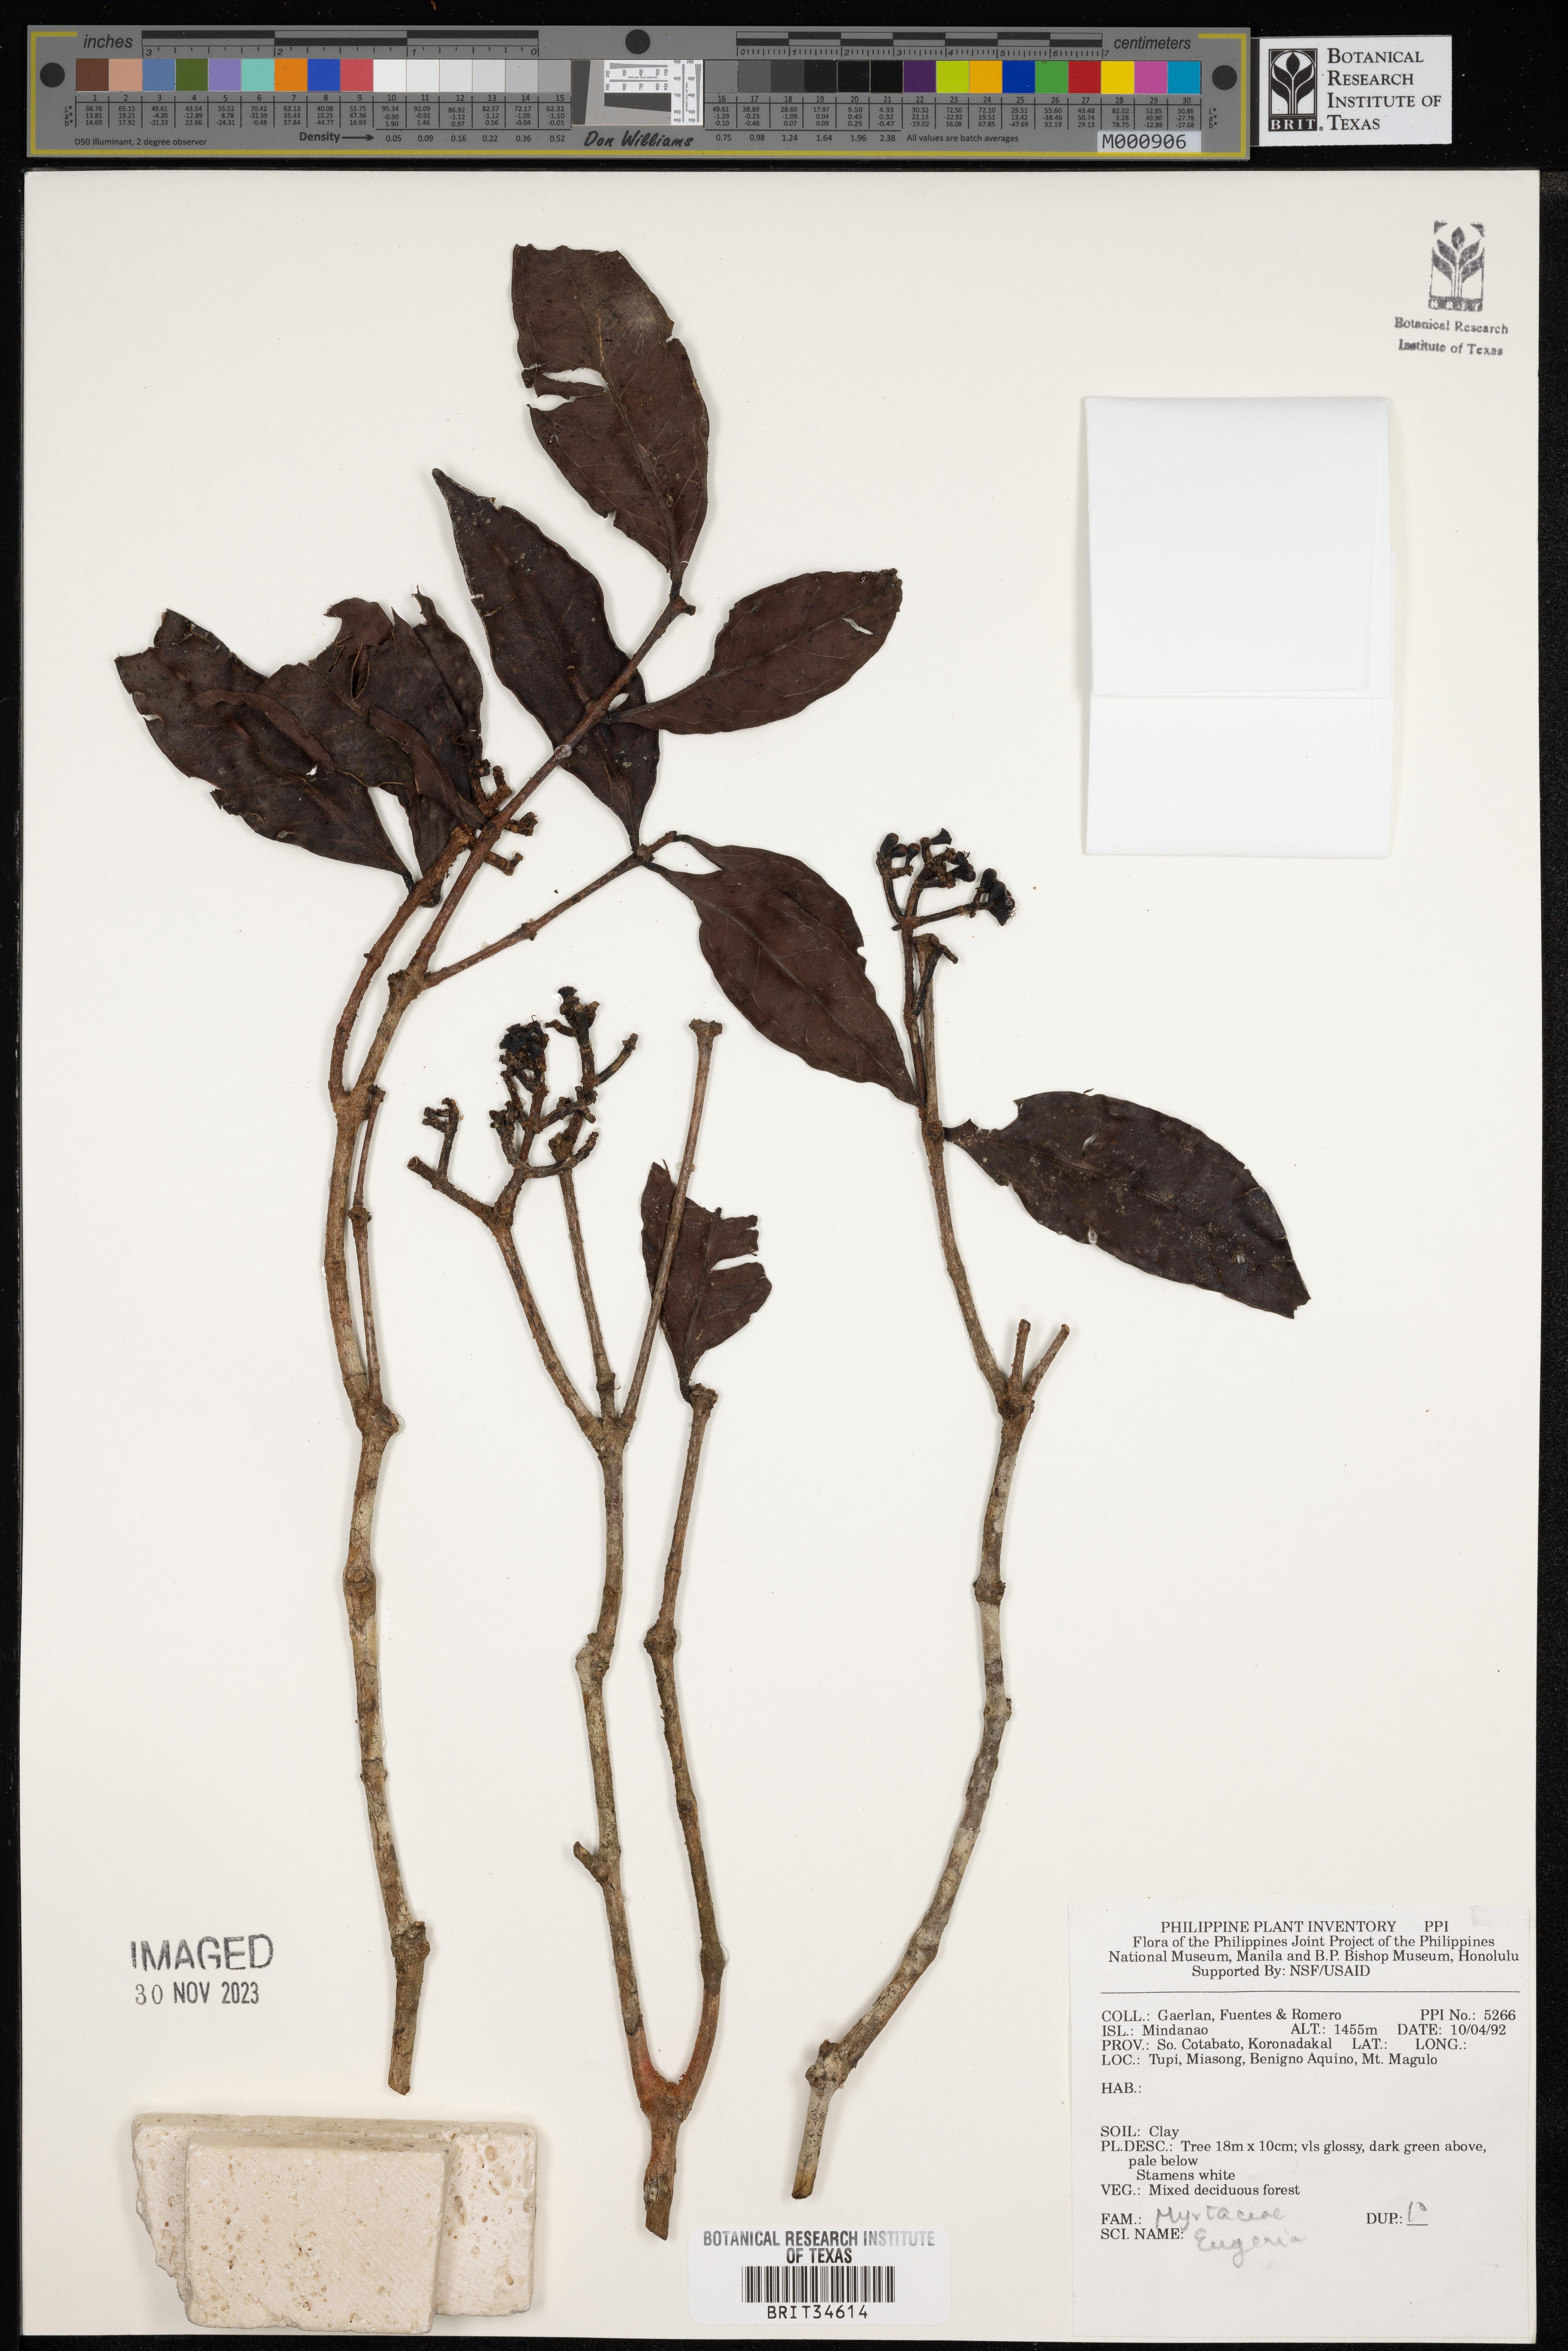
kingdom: Plantae
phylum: Tracheophyta
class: Magnoliopsida
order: Myrtales
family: Myrtaceae
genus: Eugenia
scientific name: Eugenia
